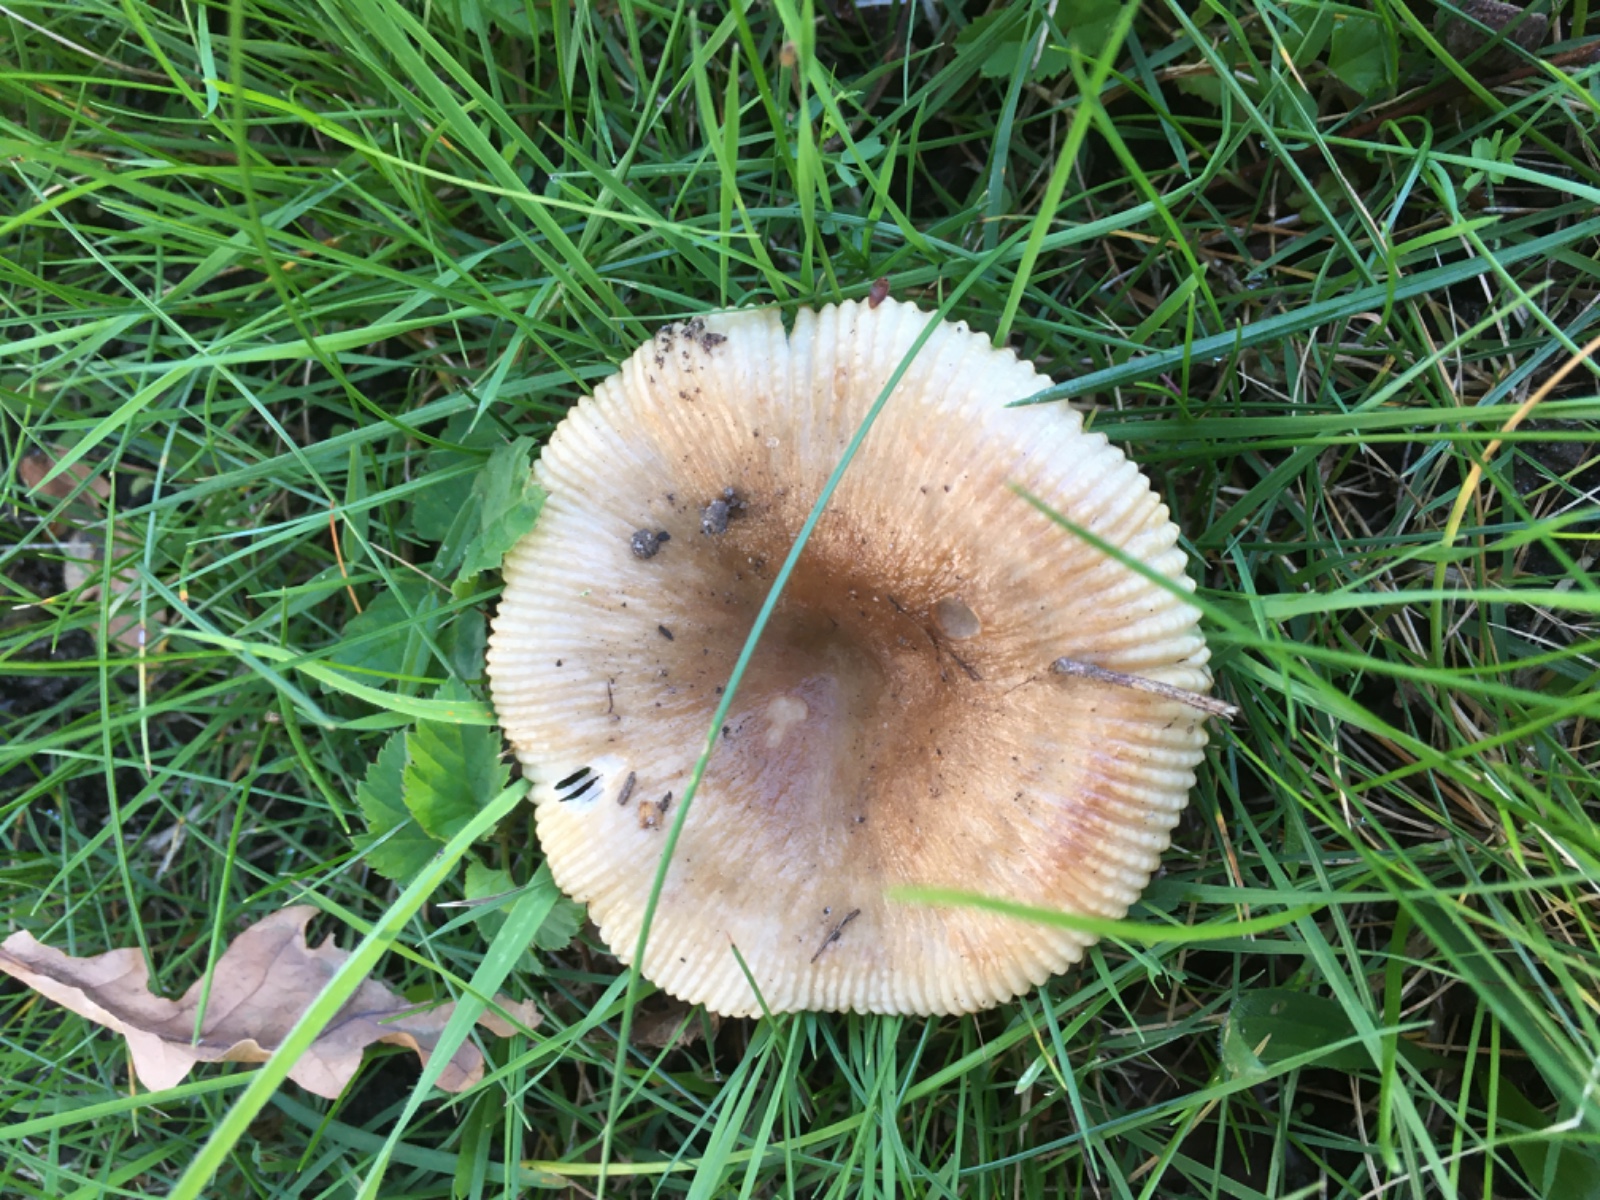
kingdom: Fungi
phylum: Basidiomycota
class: Agaricomycetes
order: Russulales
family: Russulaceae
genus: Russula
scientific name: Russula recondita
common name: mild kam-skørhat
